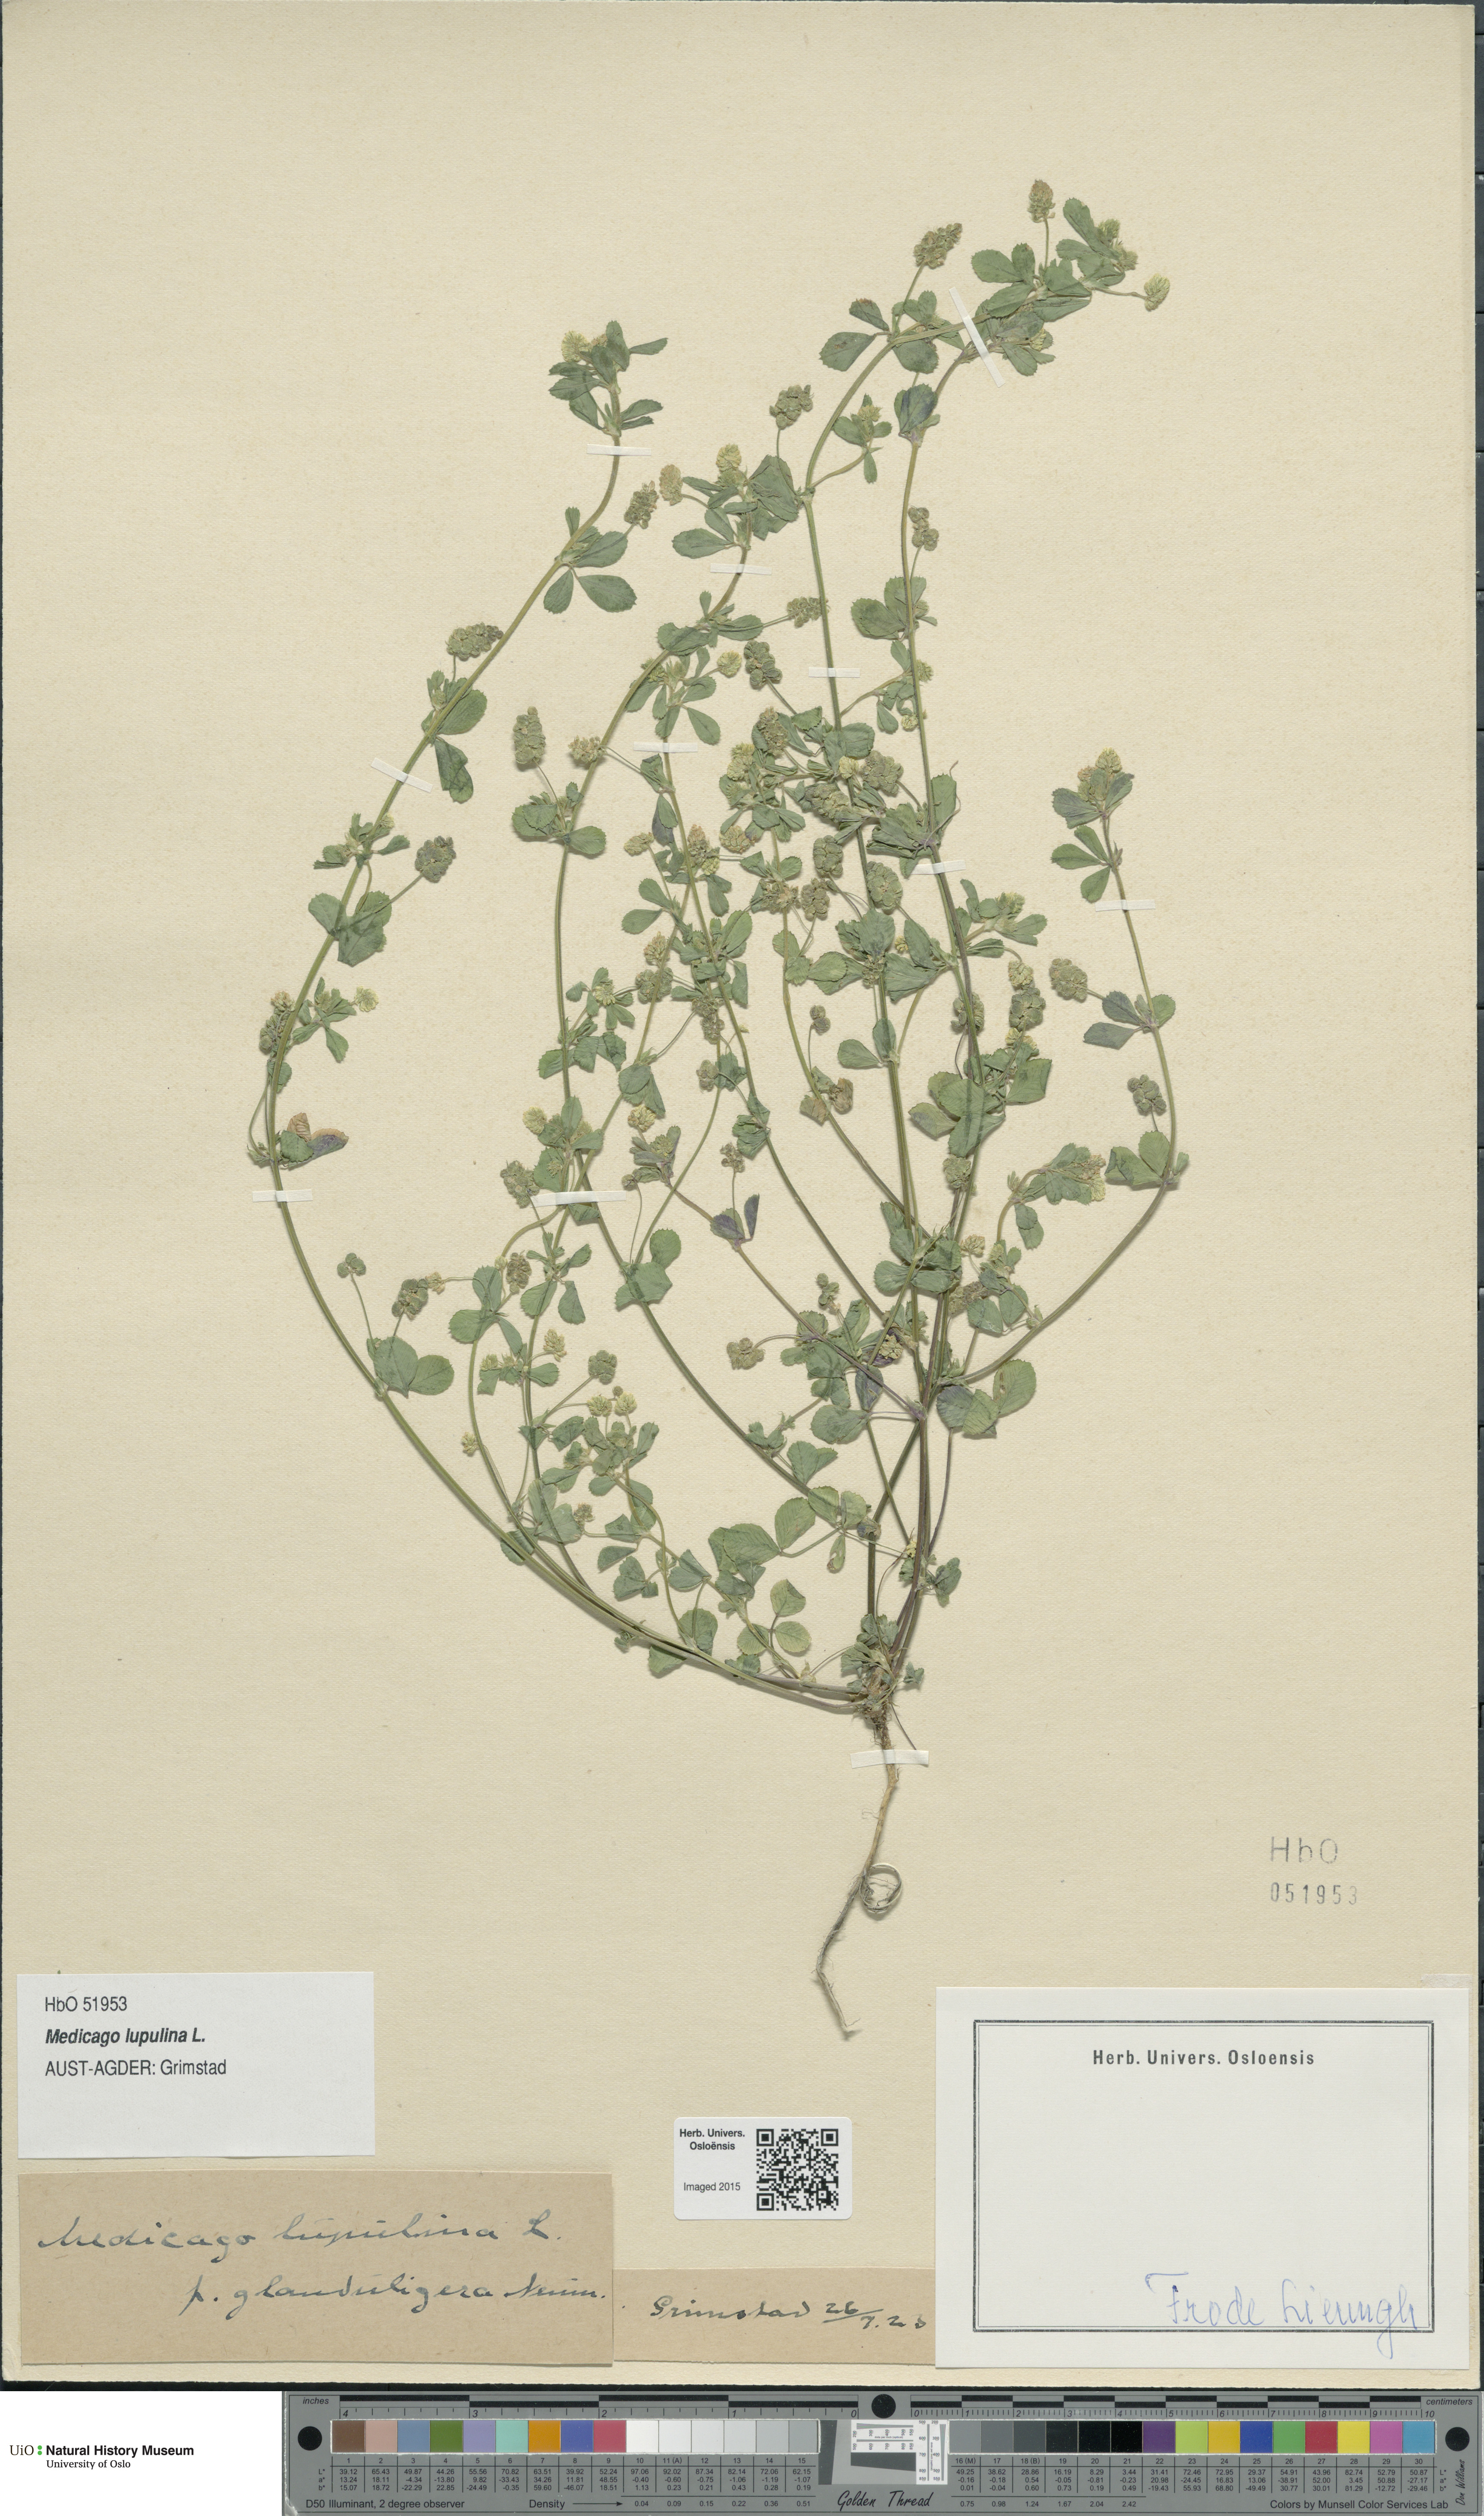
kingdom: Plantae
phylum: Tracheophyta
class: Magnoliopsida
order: Fabales
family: Fabaceae
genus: Medicago
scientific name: Medicago lupulina
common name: Black medick
